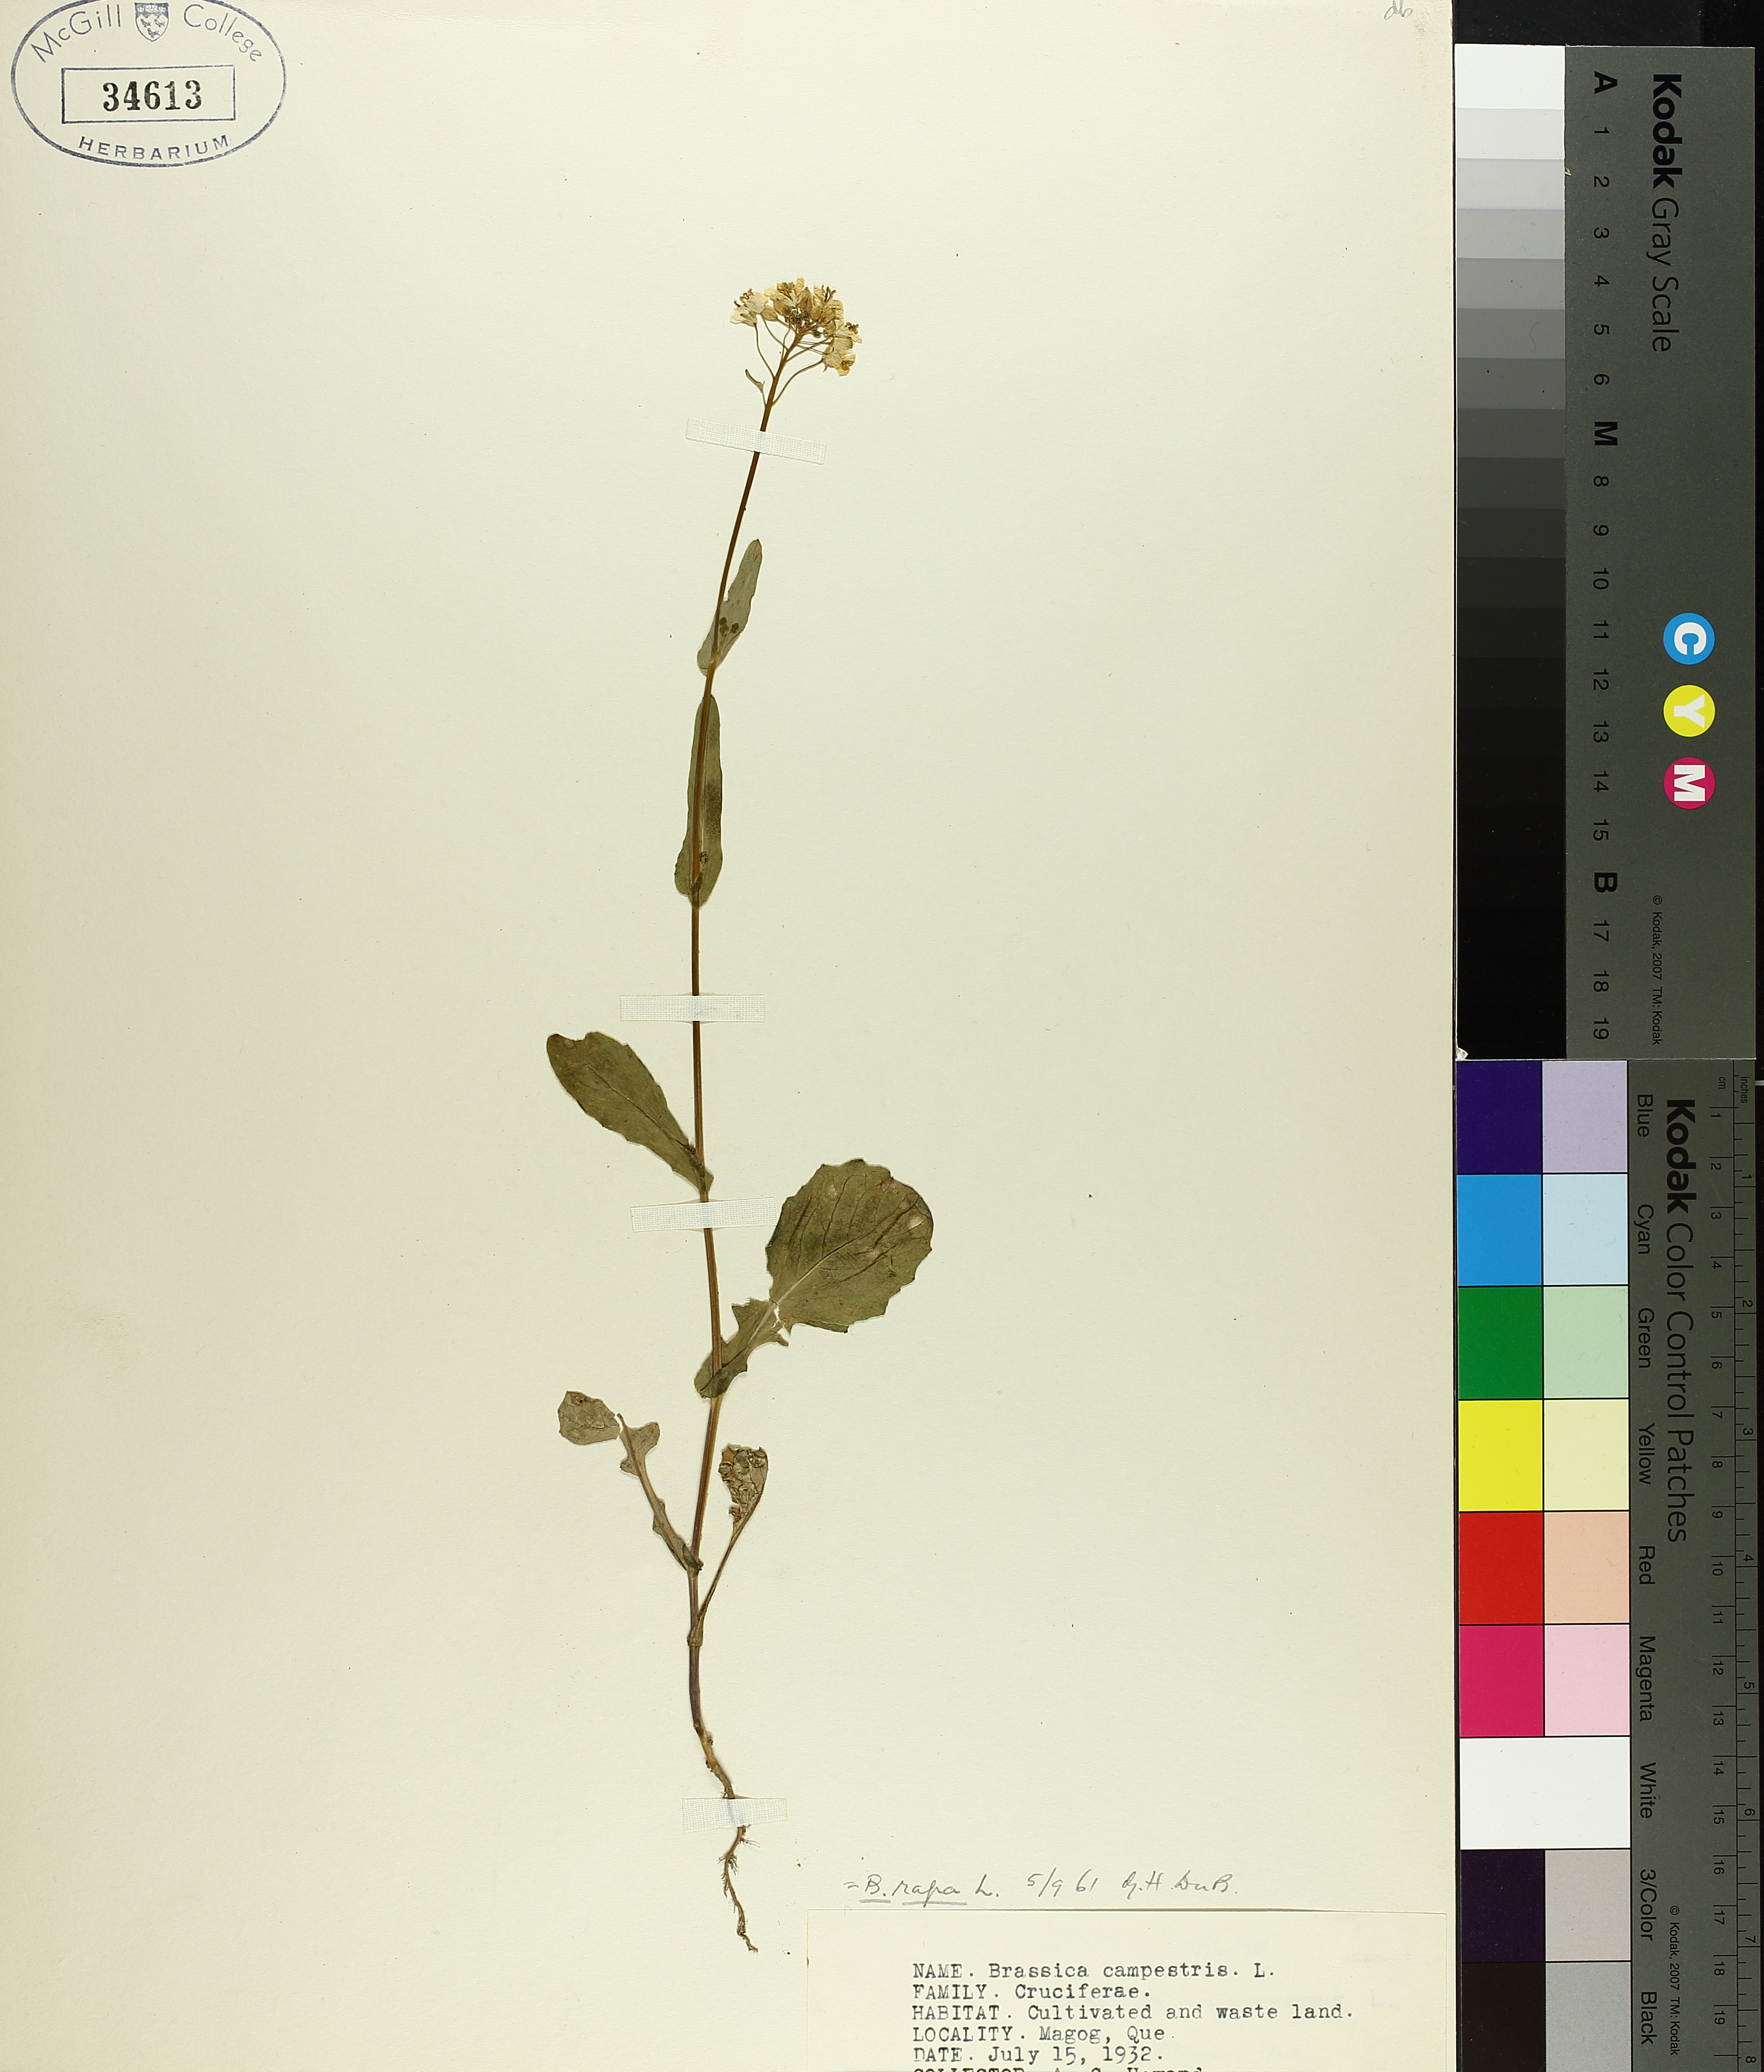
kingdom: Plantae
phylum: Tracheophyta
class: Magnoliopsida
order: Brassicales
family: Brassicaceae
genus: Brassica
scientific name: Brassica rapa
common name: Field mustard
